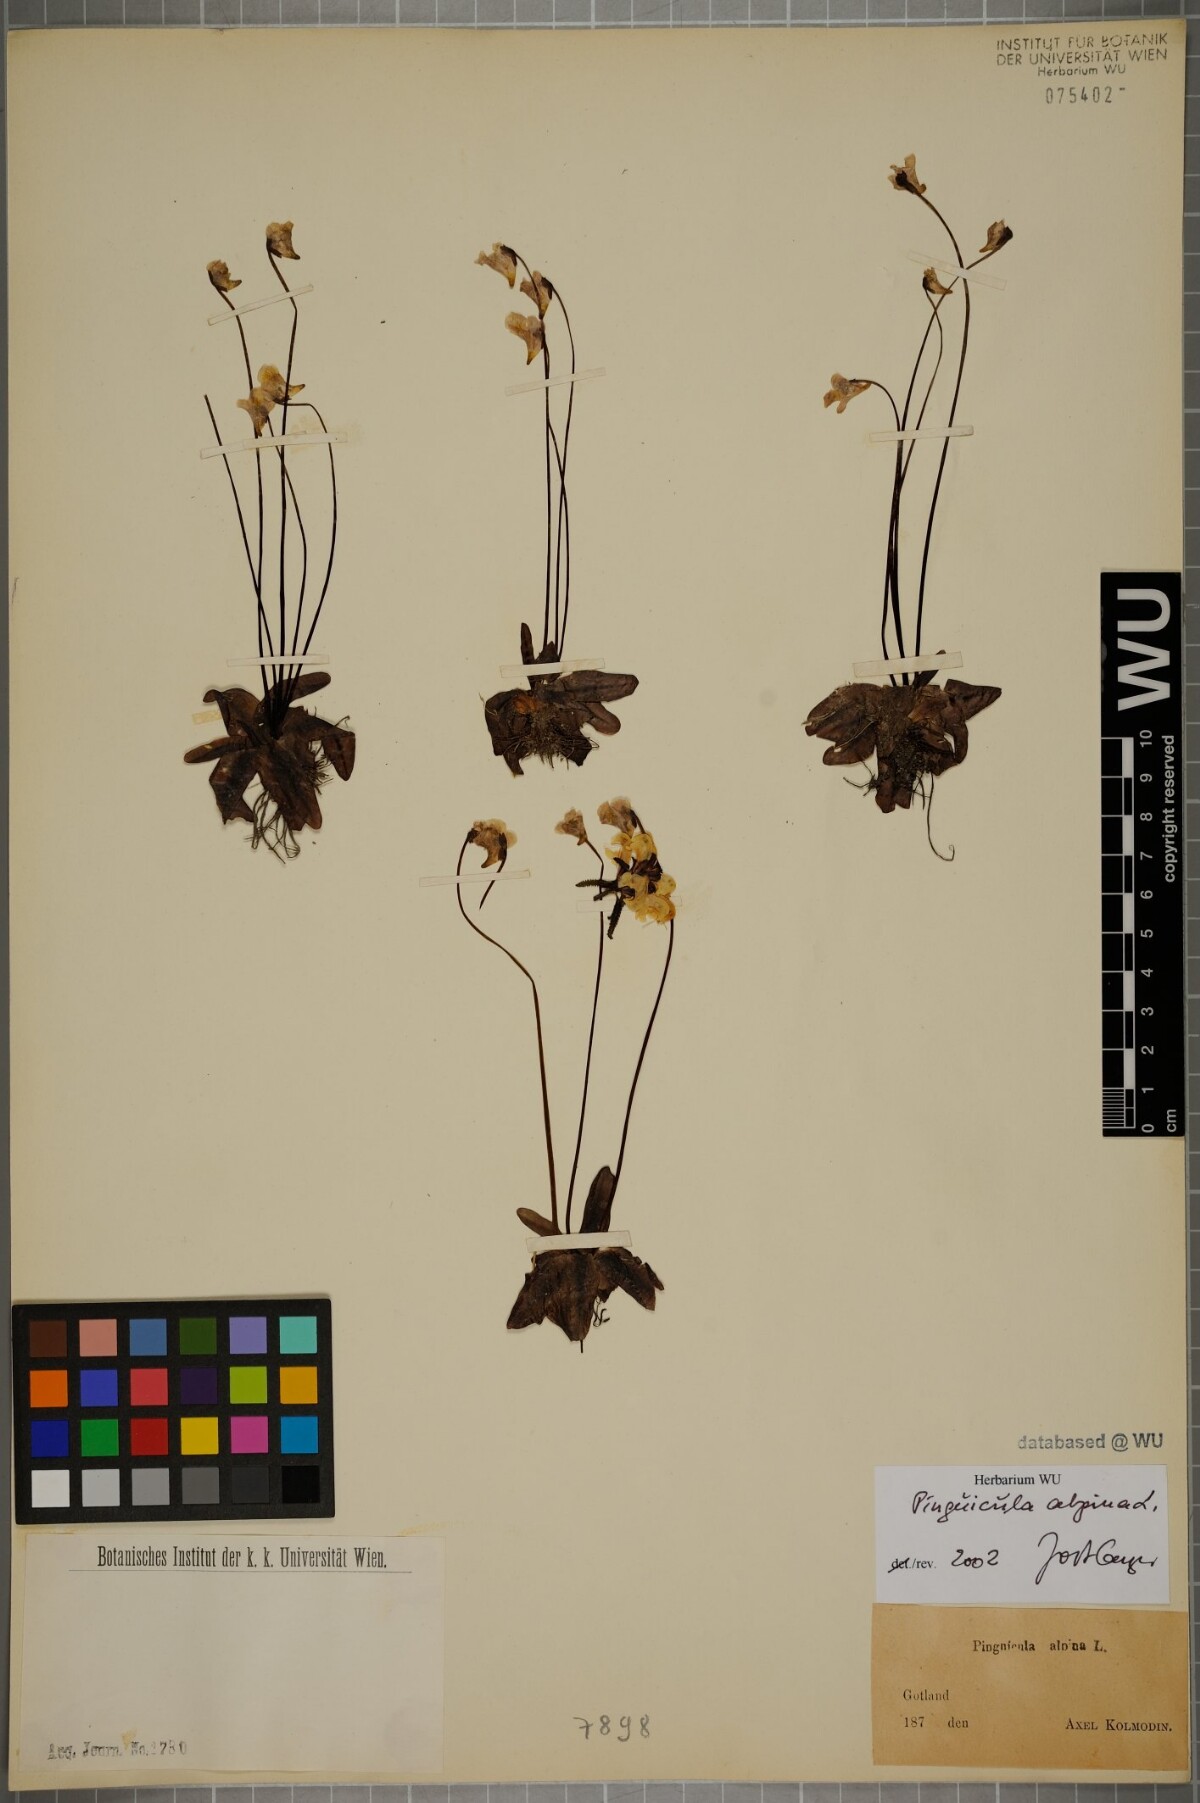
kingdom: Plantae
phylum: Tracheophyta
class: Magnoliopsida
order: Lamiales
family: Lentibulariaceae
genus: Pinguicula
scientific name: Pinguicula alpina
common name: Alpine butterwort
